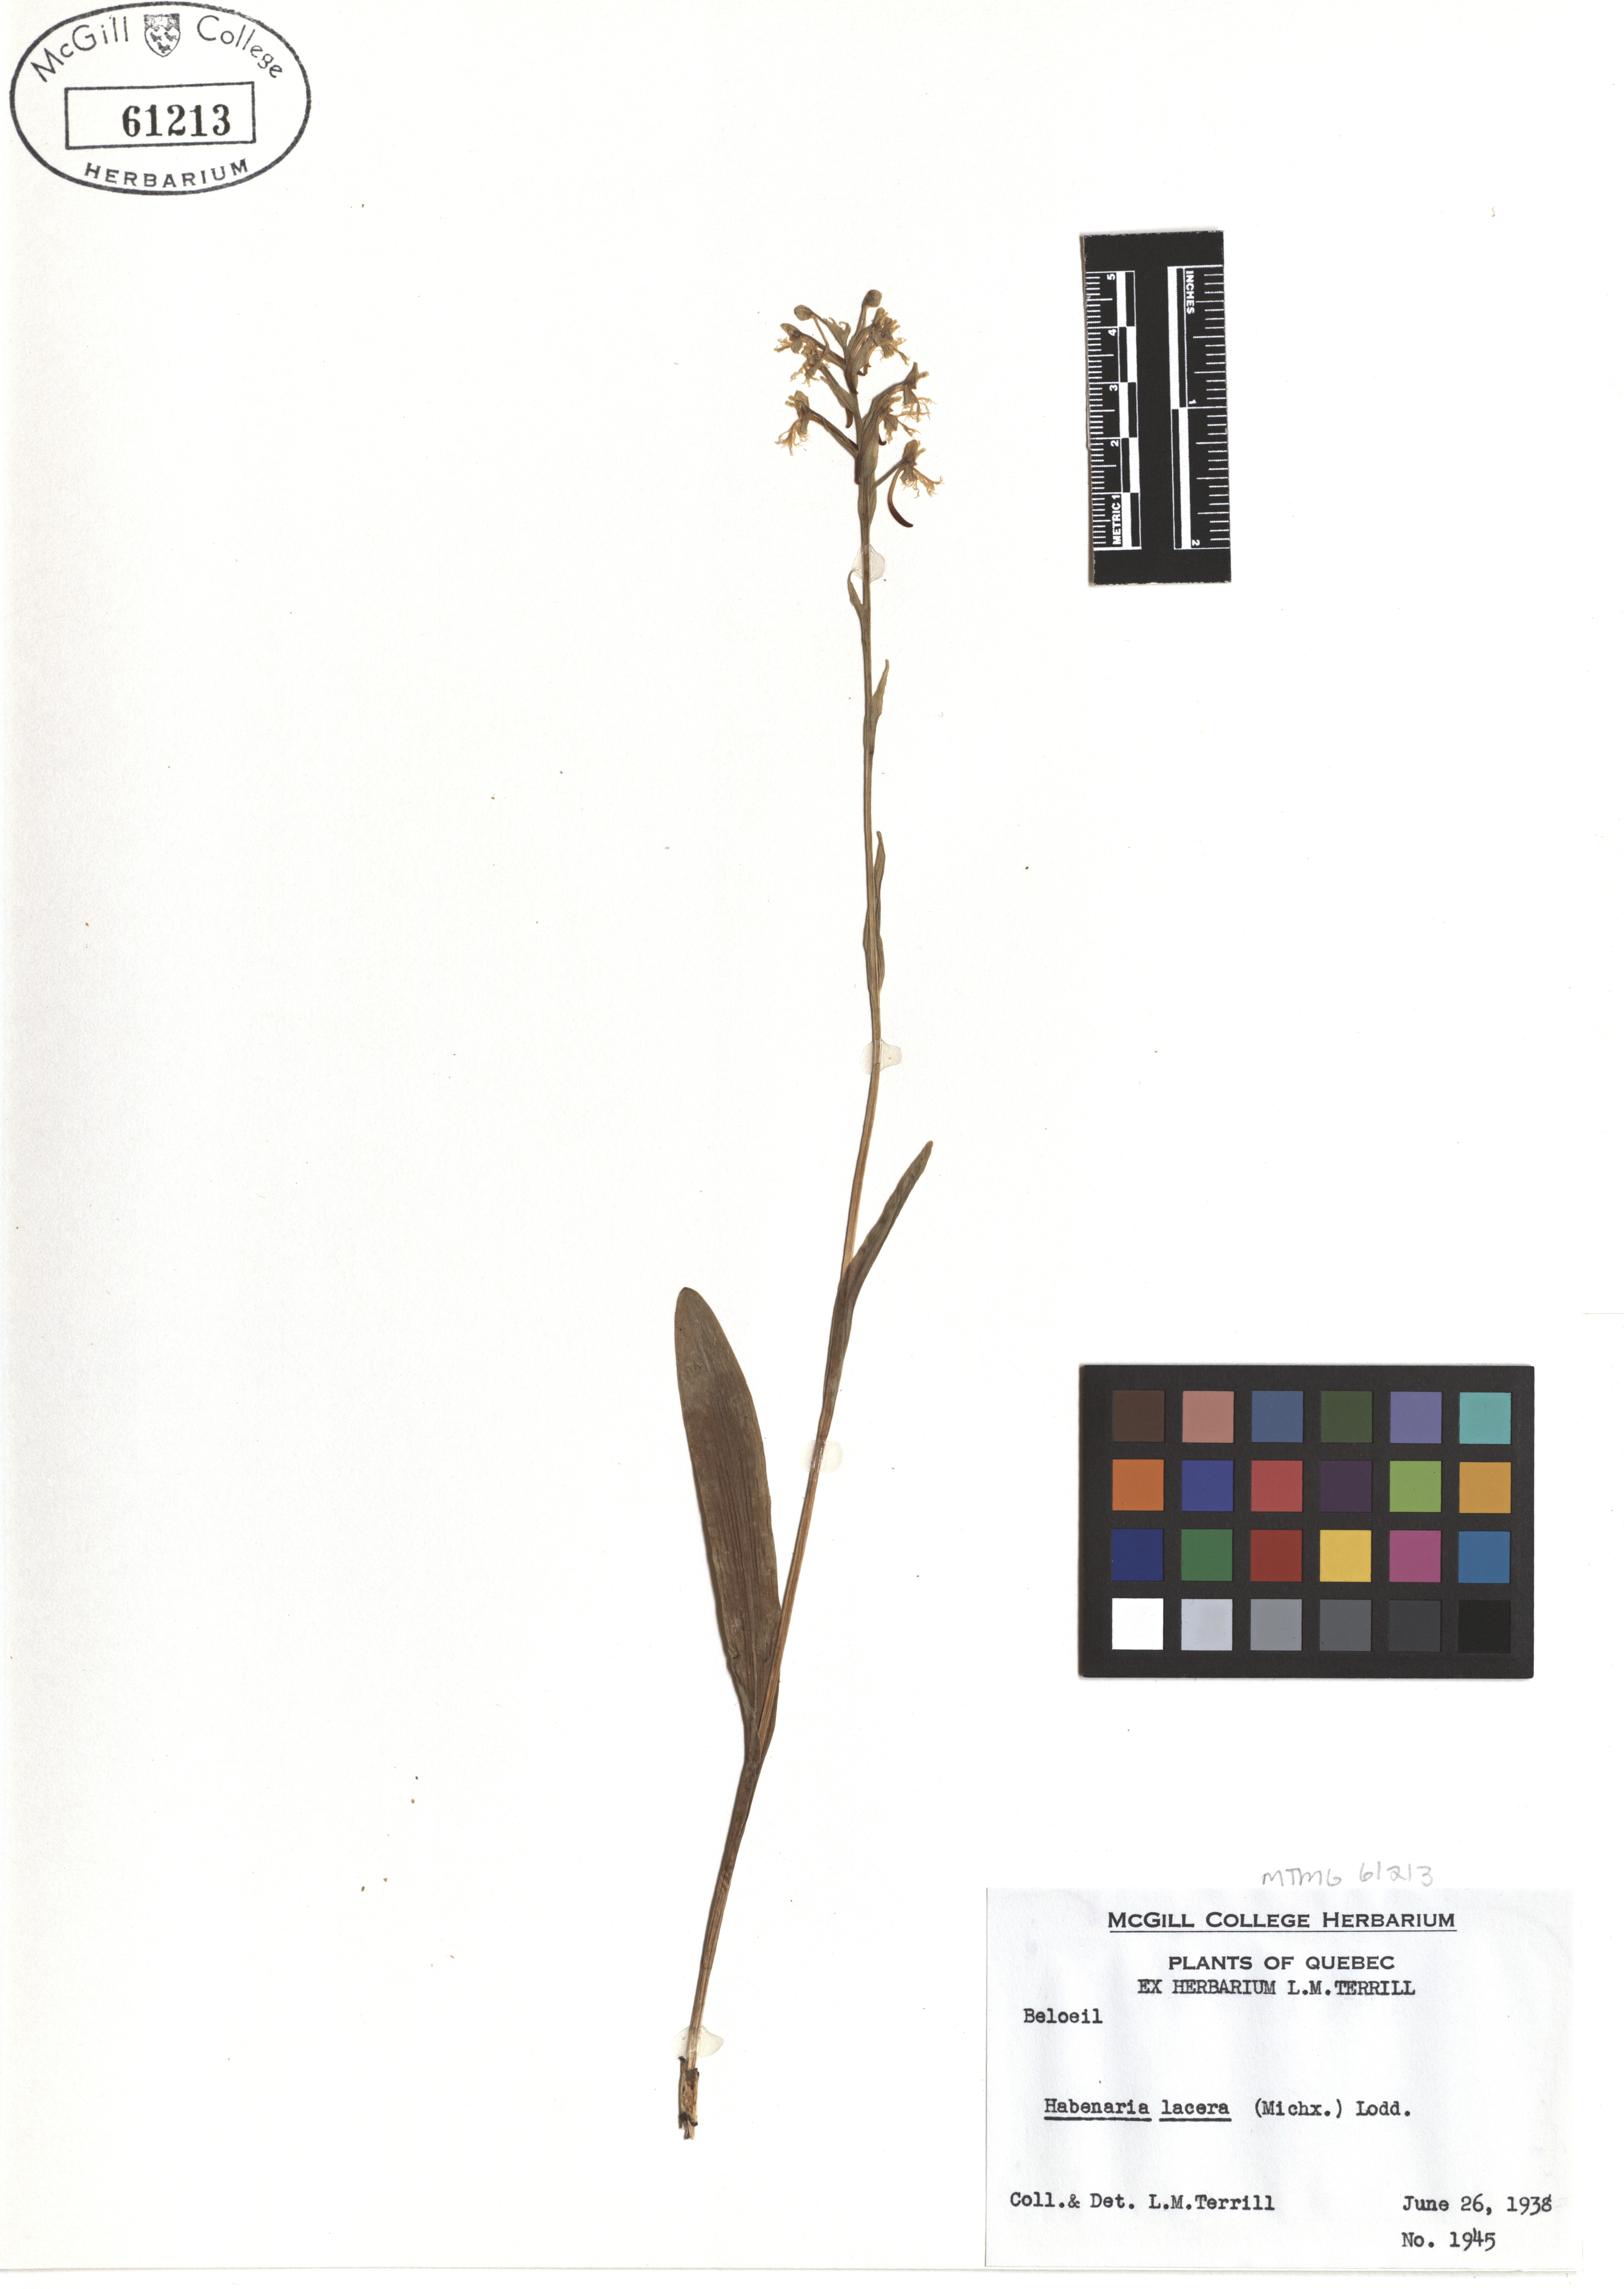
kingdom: Plantae
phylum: Tracheophyta
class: Liliopsida
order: Asparagales
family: Orchidaceae
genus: Platanthera
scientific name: Platanthera lacera
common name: Green fringed orchid
